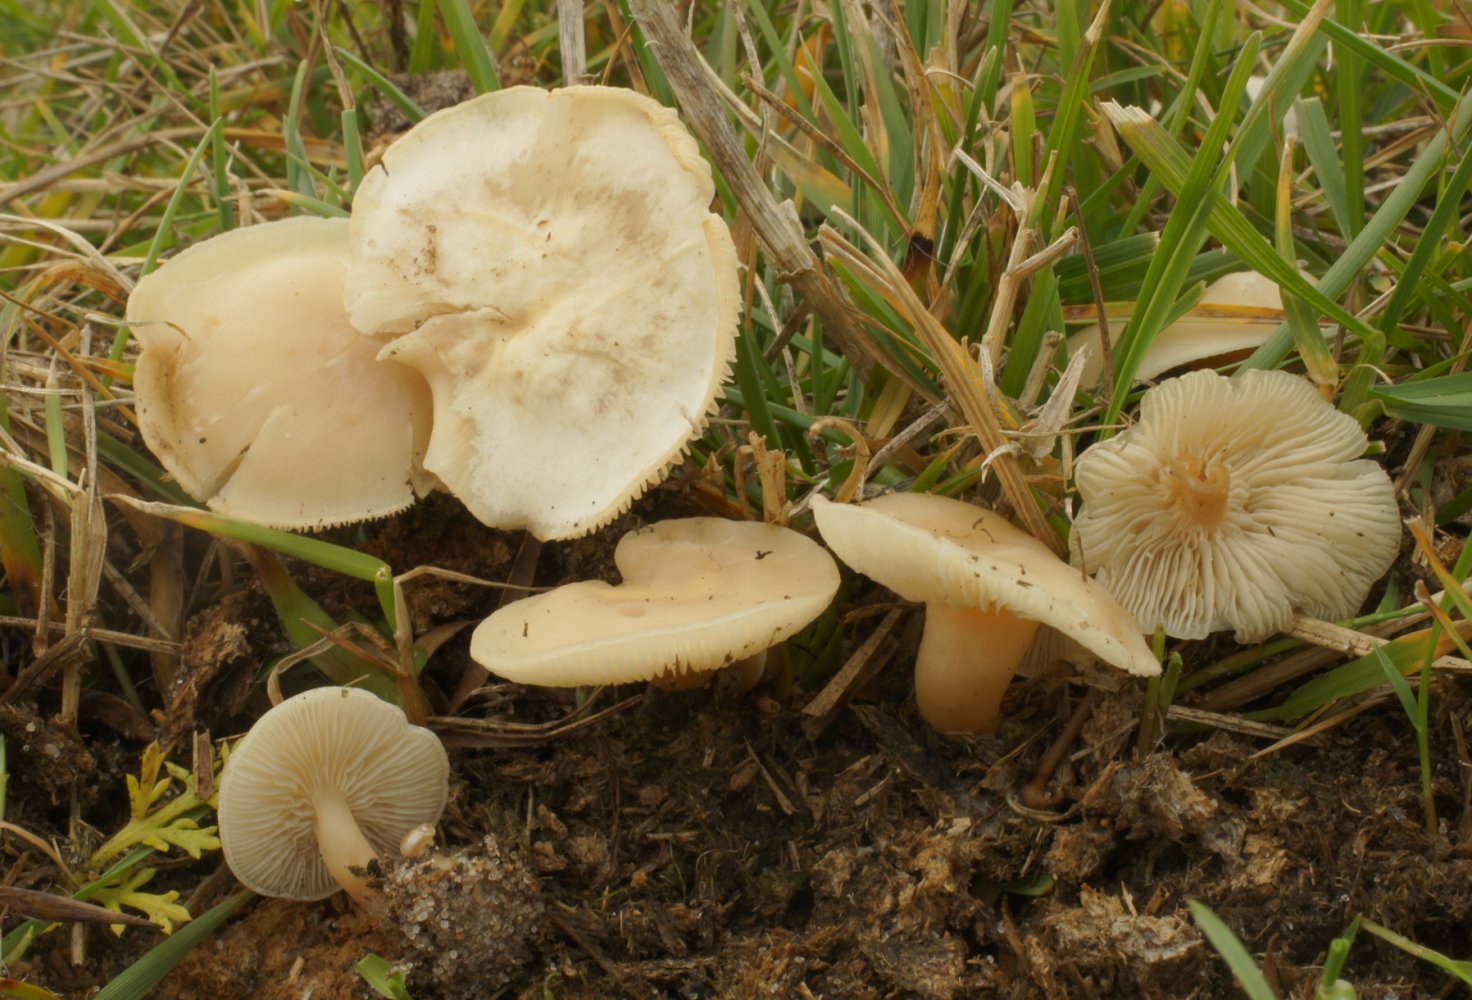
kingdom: Fungi
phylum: Basidiomycota
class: Agaricomycetes
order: Agaricales
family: Tricholomataceae
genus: Clitocybe
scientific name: Clitocybe amarescens
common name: gødnings-tragthat
